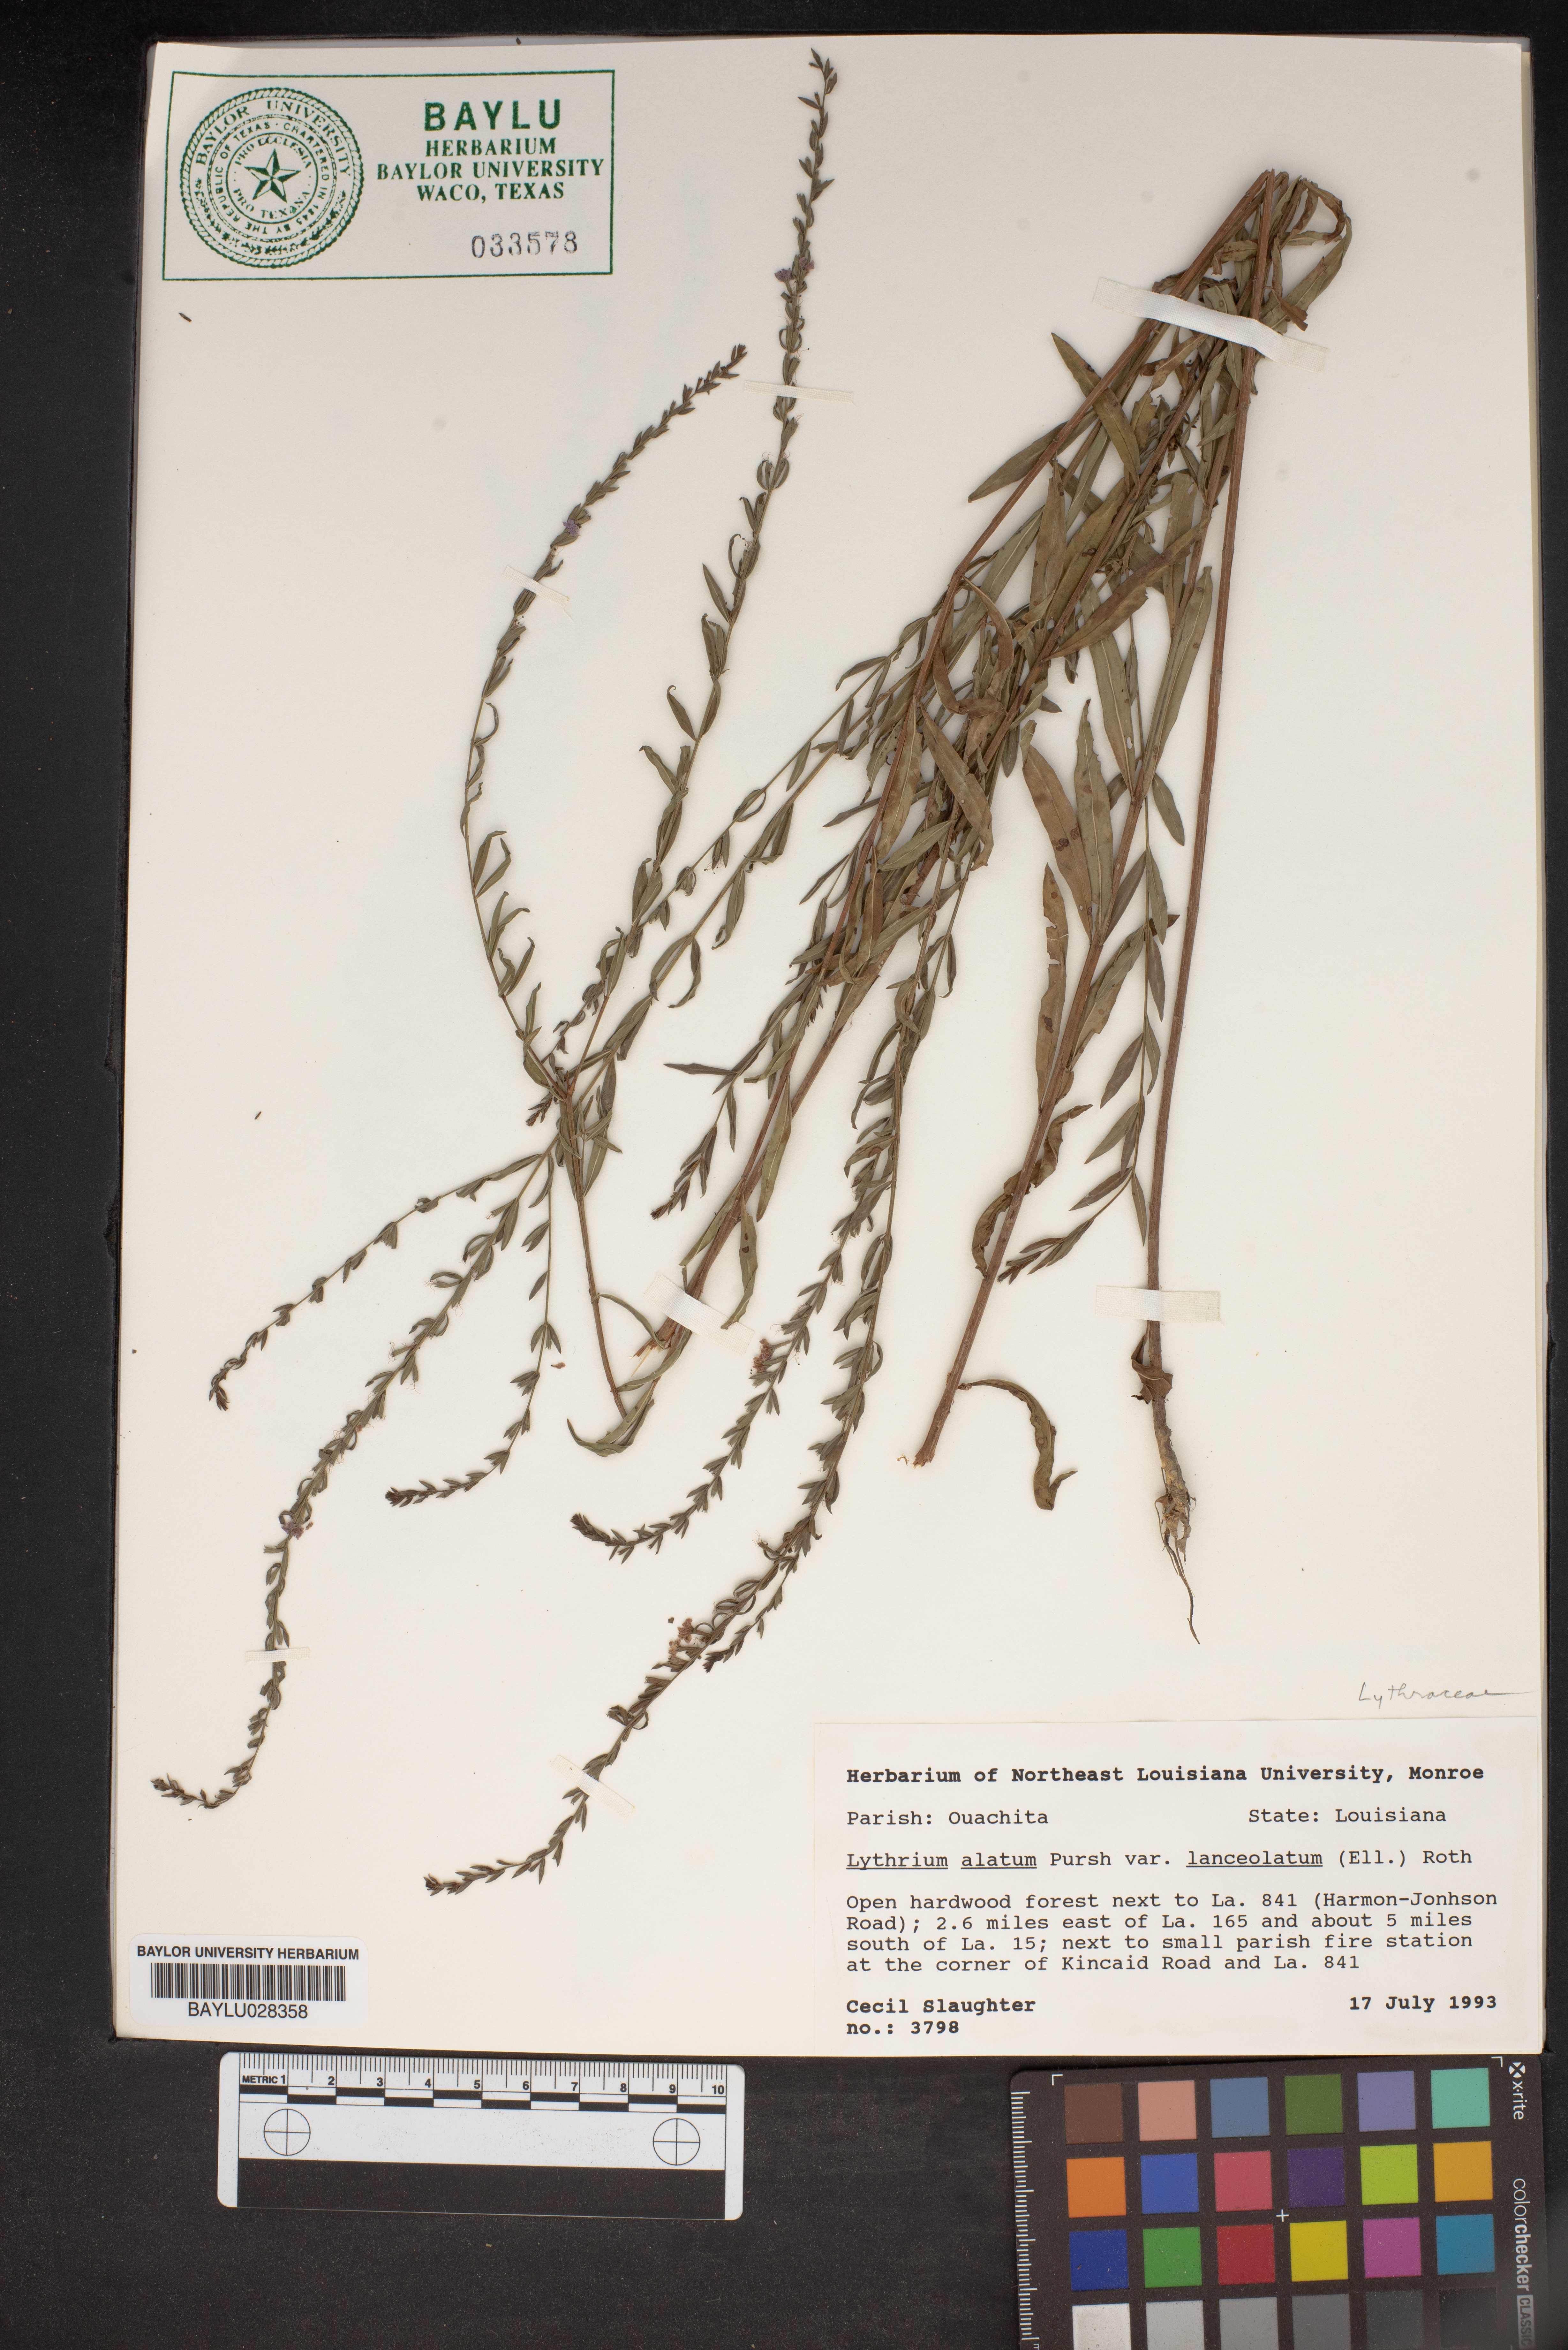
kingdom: Plantae
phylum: Tracheophyta
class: Magnoliopsida
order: Myrtales
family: Lythraceae
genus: Lythrum
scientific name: Lythrum alatum
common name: Winged loosestrife
